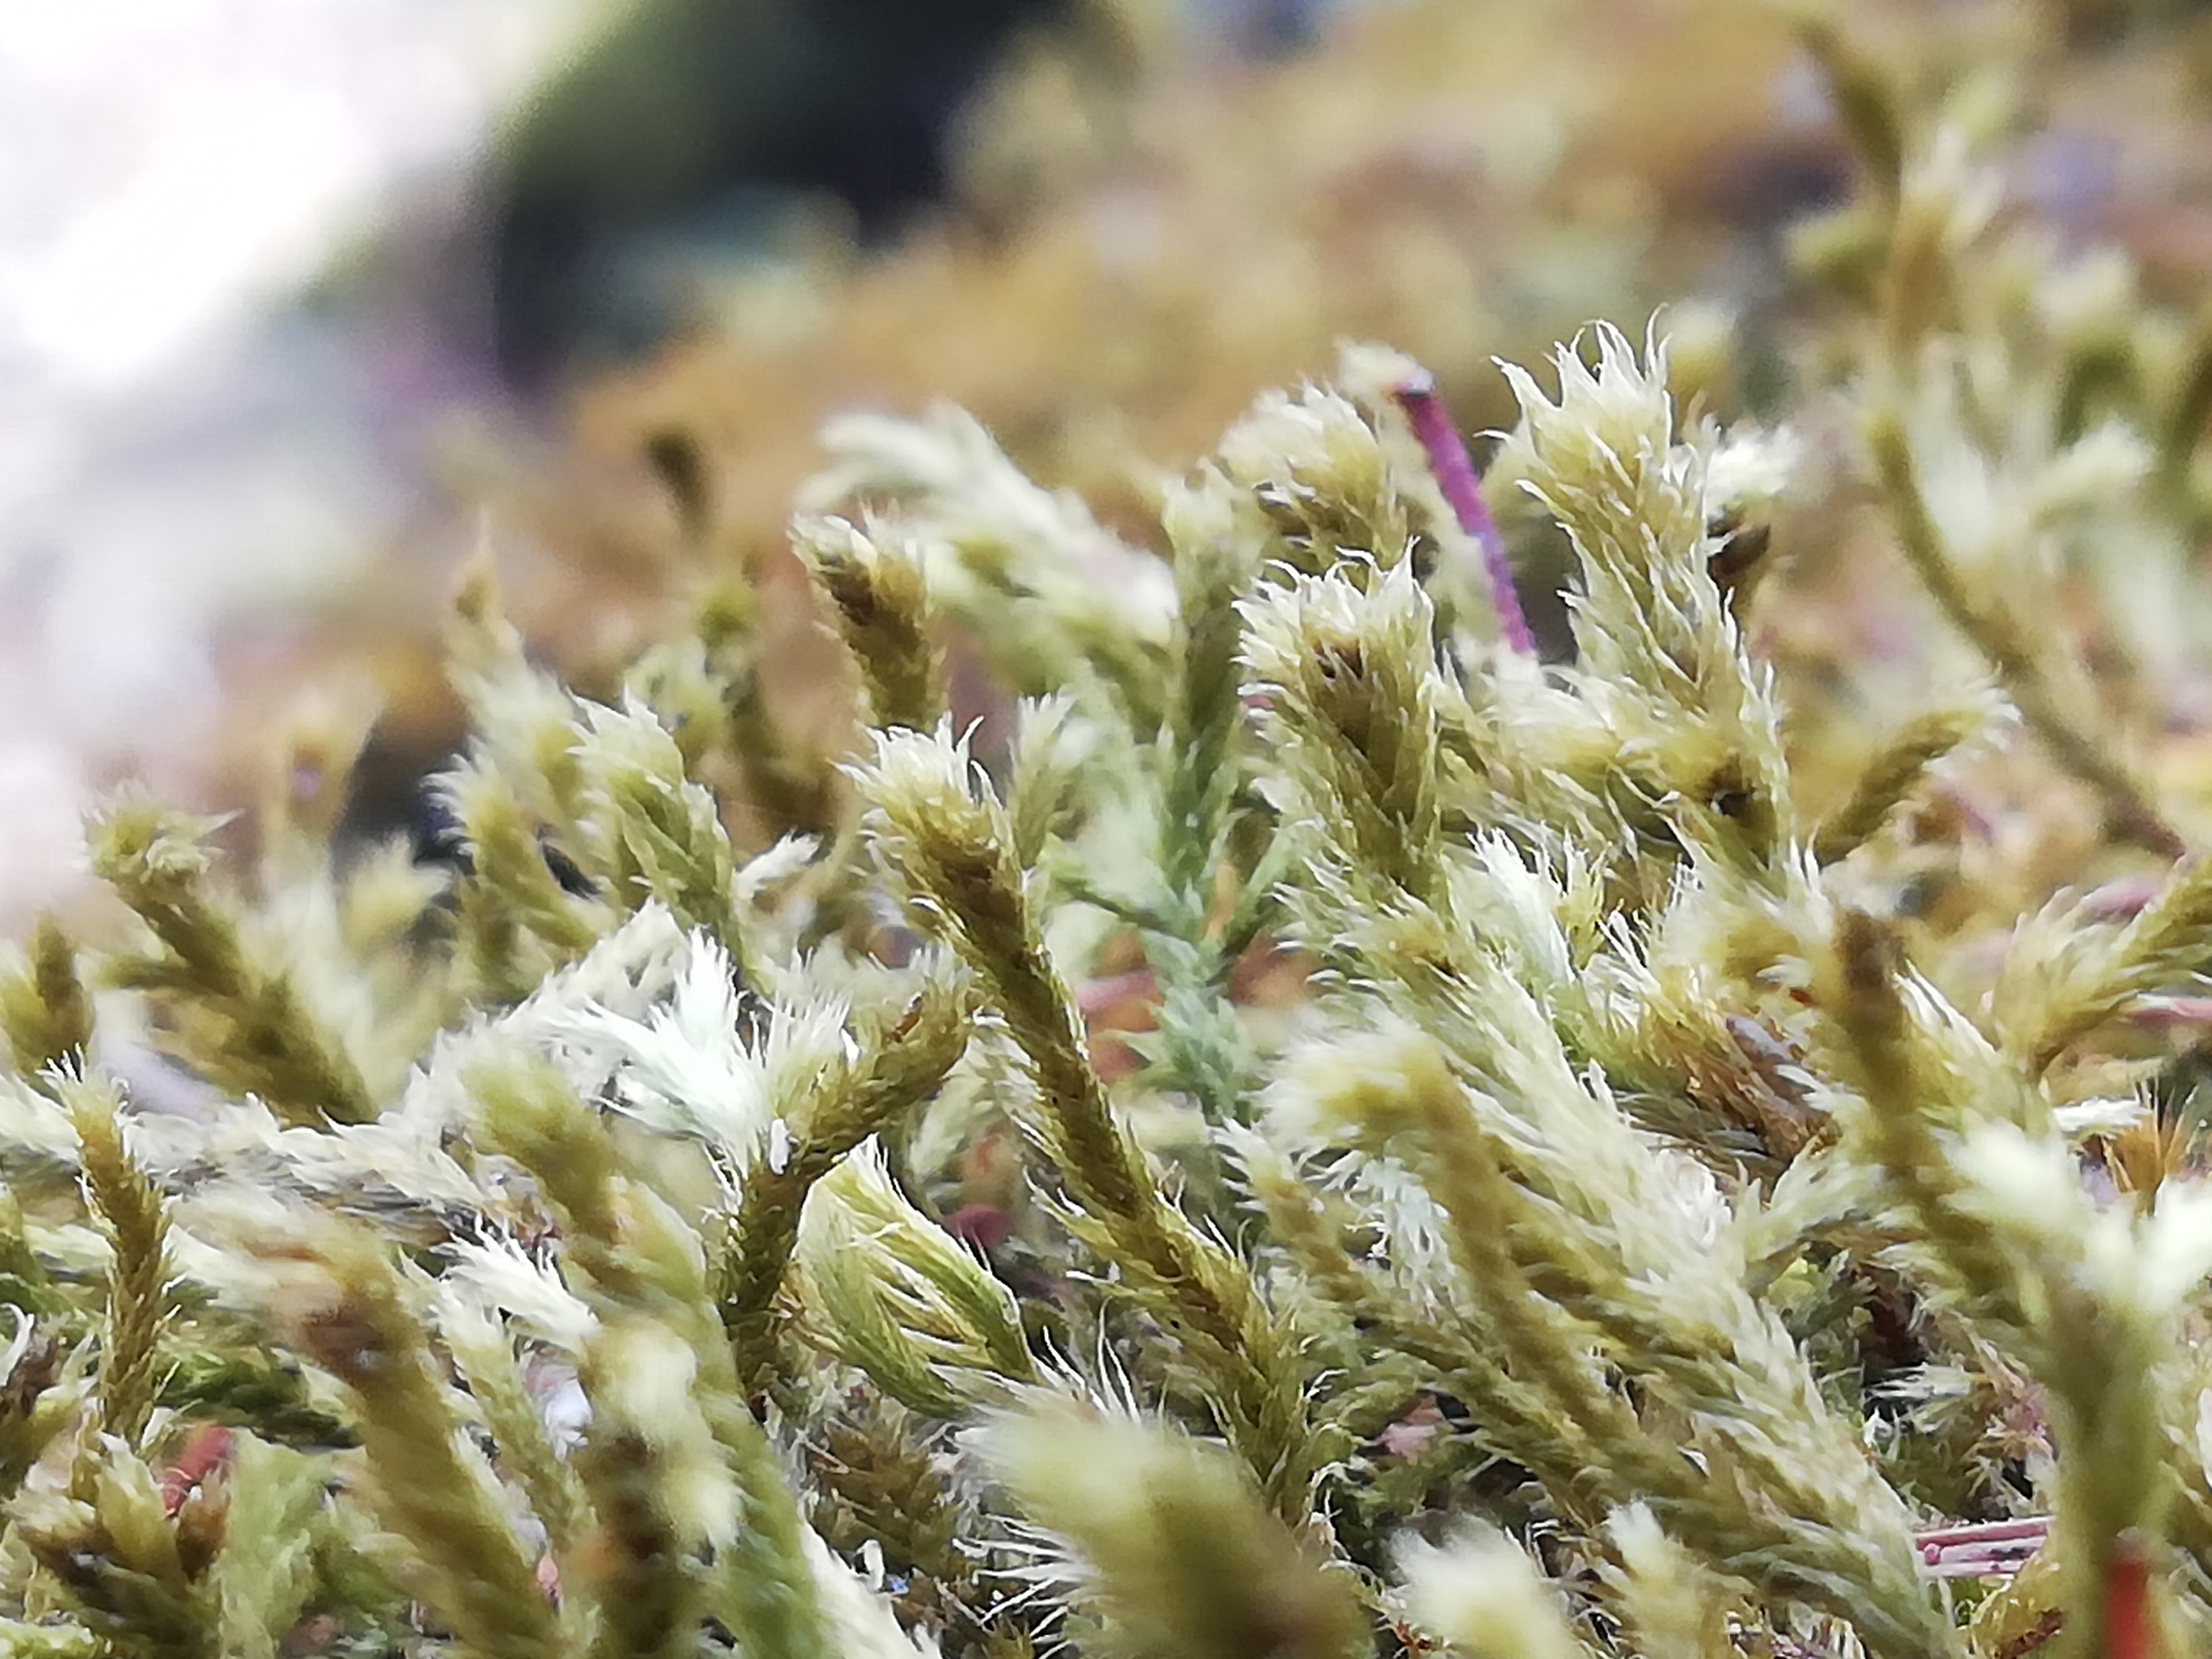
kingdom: Plantae
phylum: Bryophyta
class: Bryopsida
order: Hypnales
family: Antitrichiaceae
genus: Antitrichia
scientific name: Antitrichia curtipendula
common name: Åben krogtand
